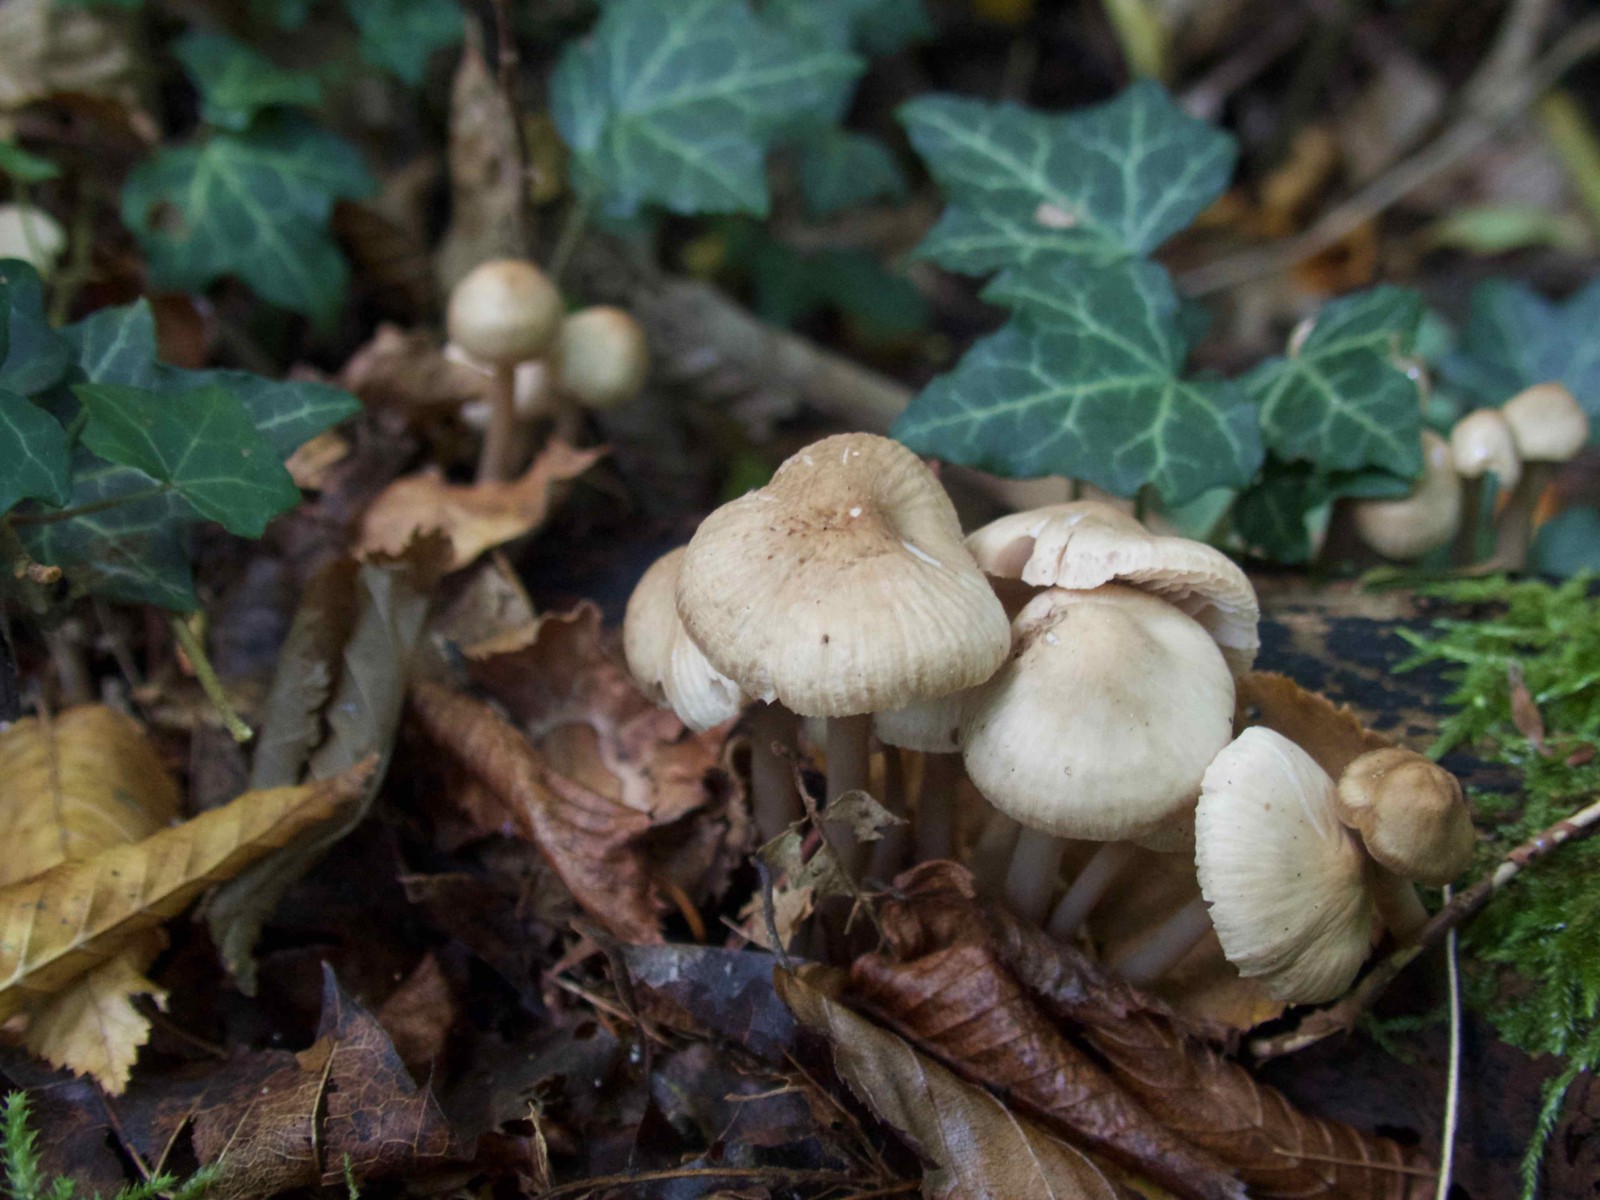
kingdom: Fungi
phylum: Basidiomycota
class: Agaricomycetes
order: Agaricales
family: Mycenaceae
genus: Mycena
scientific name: Mycena galericulata
